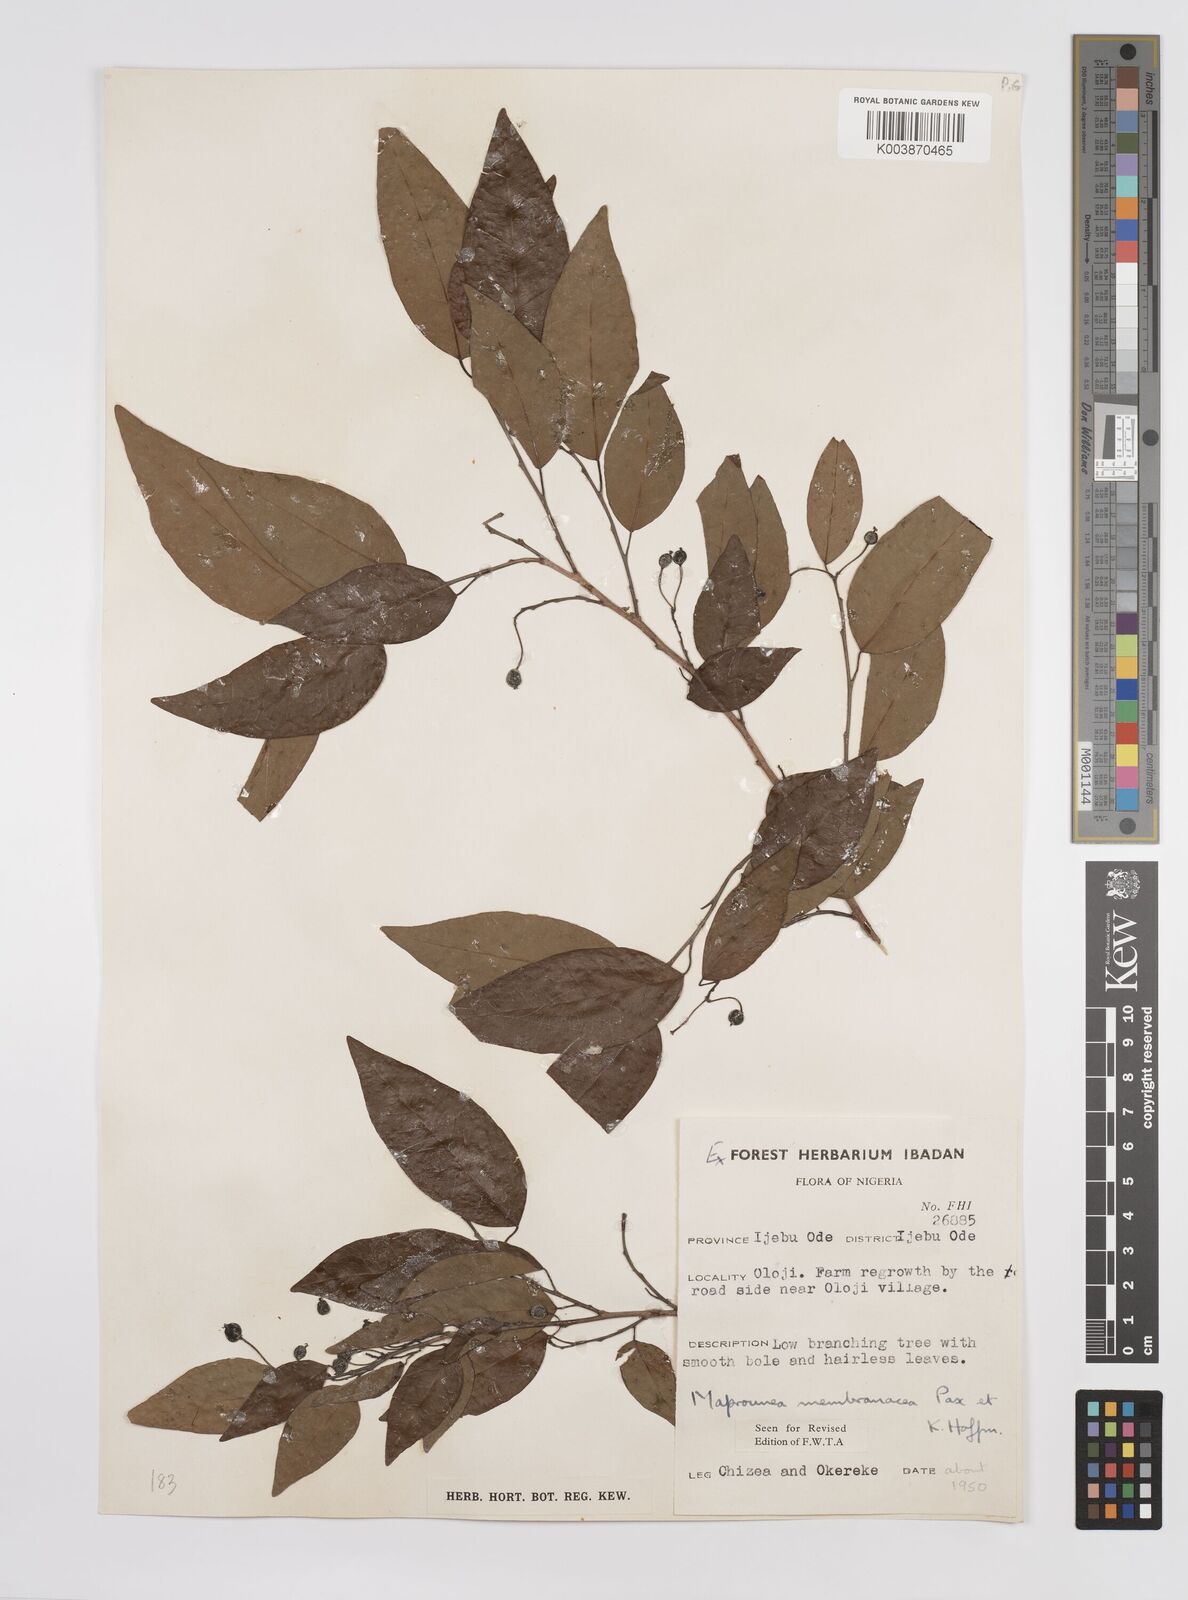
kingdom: Plantae
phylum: Tracheophyta
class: Magnoliopsida
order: Malpighiales
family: Euphorbiaceae
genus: Maprounea
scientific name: Maprounea membranacea
